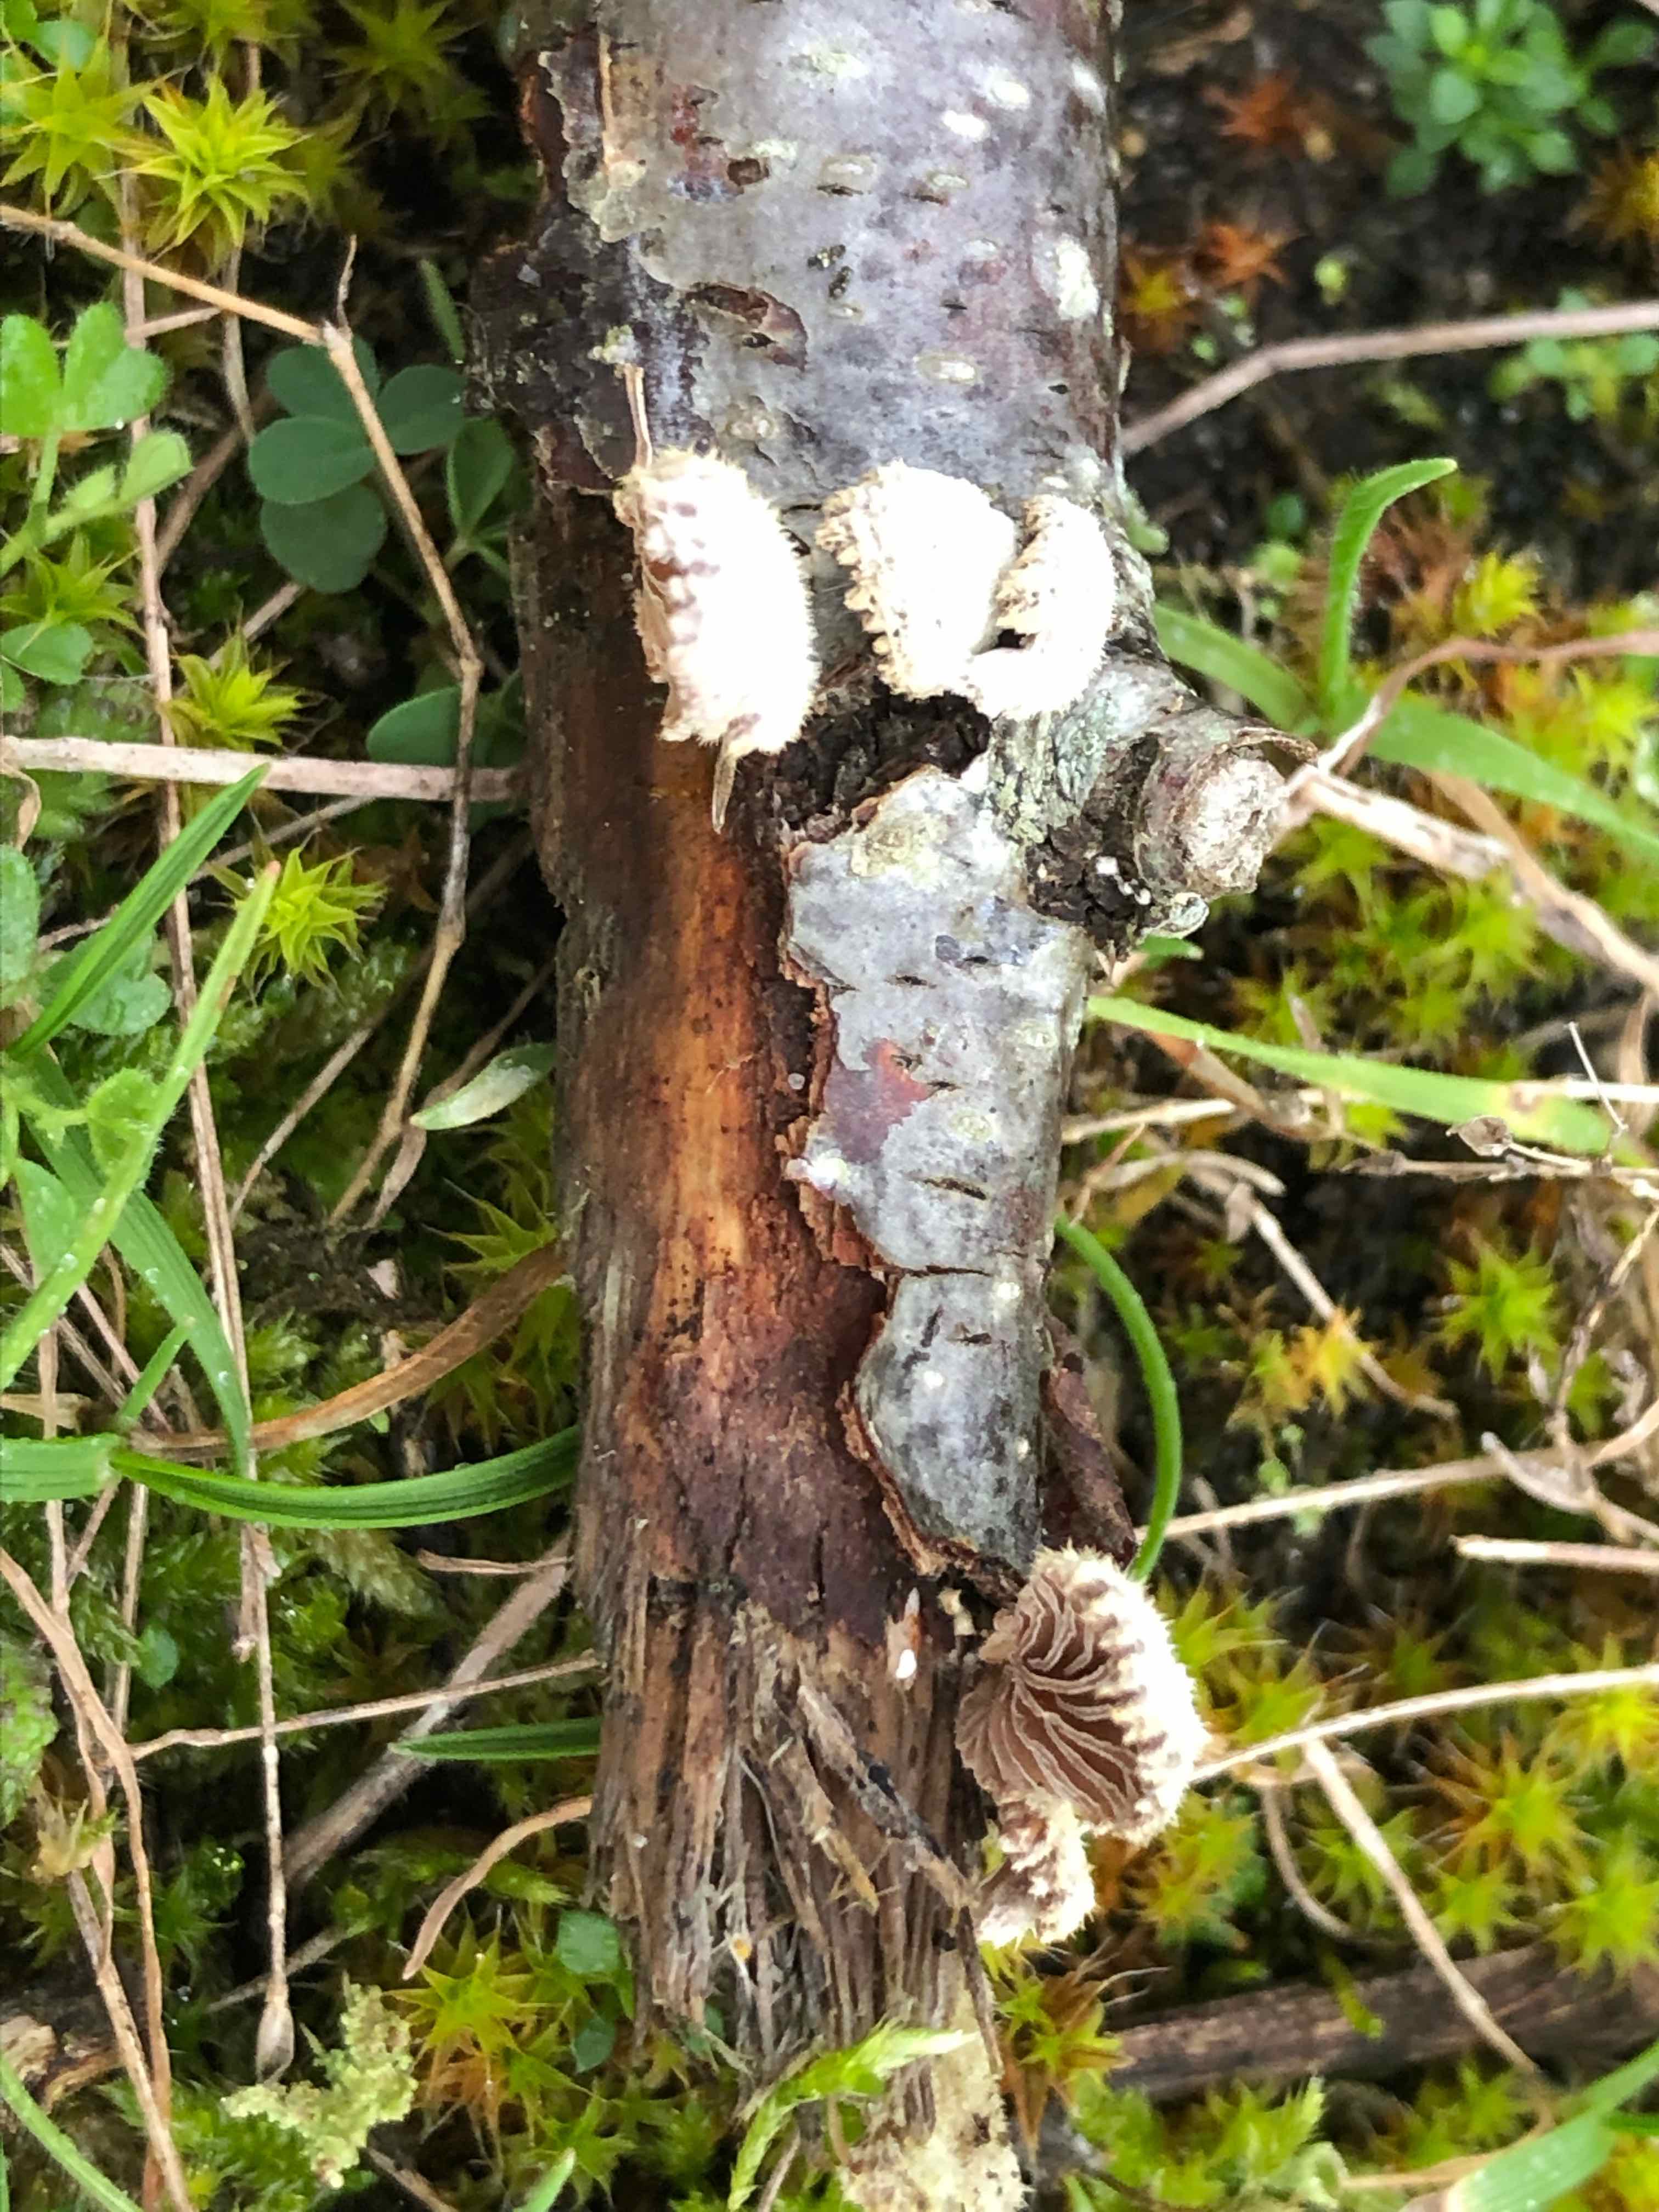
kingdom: Fungi
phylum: Basidiomycota
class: Agaricomycetes
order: Agaricales
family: Schizophyllaceae
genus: Schizophyllum
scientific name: Schizophyllum commune
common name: kløvblad
